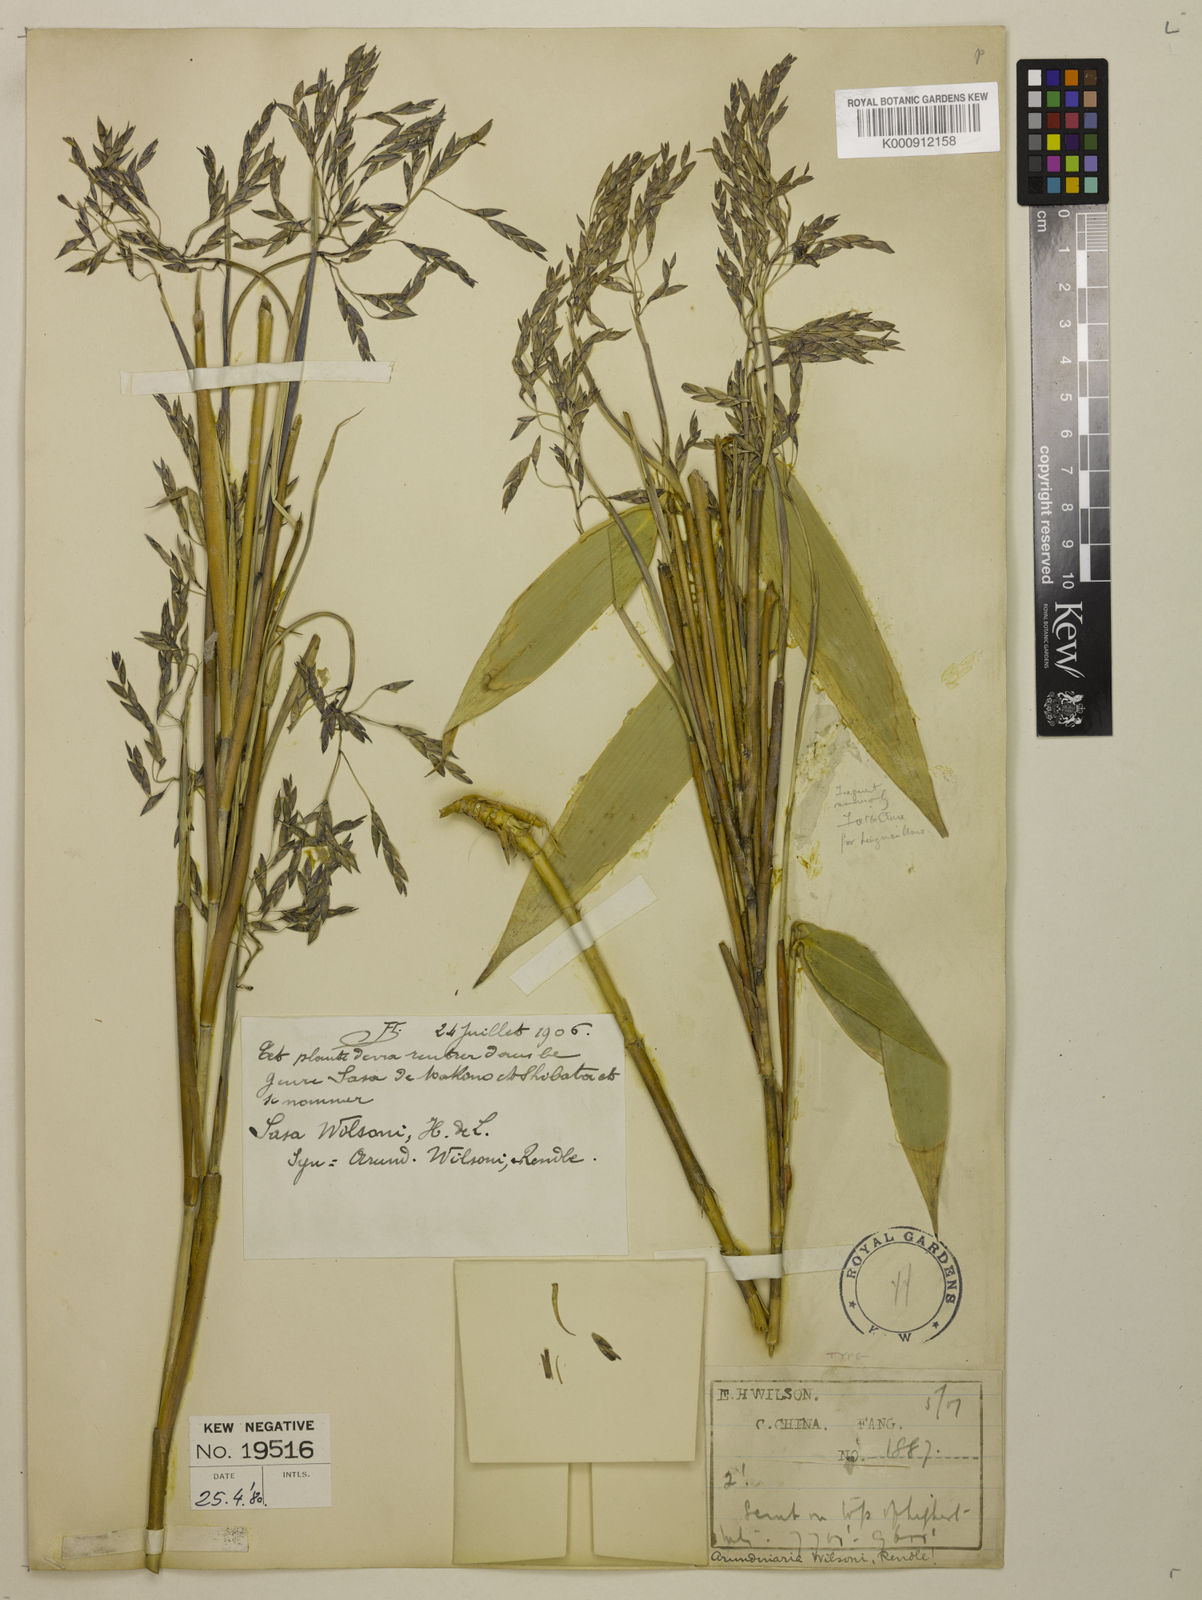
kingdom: Plantae
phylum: Tracheophyta
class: Liliopsida
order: Poales
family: Poaceae
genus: Ravenochloa
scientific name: Ravenochloa wilsonii
